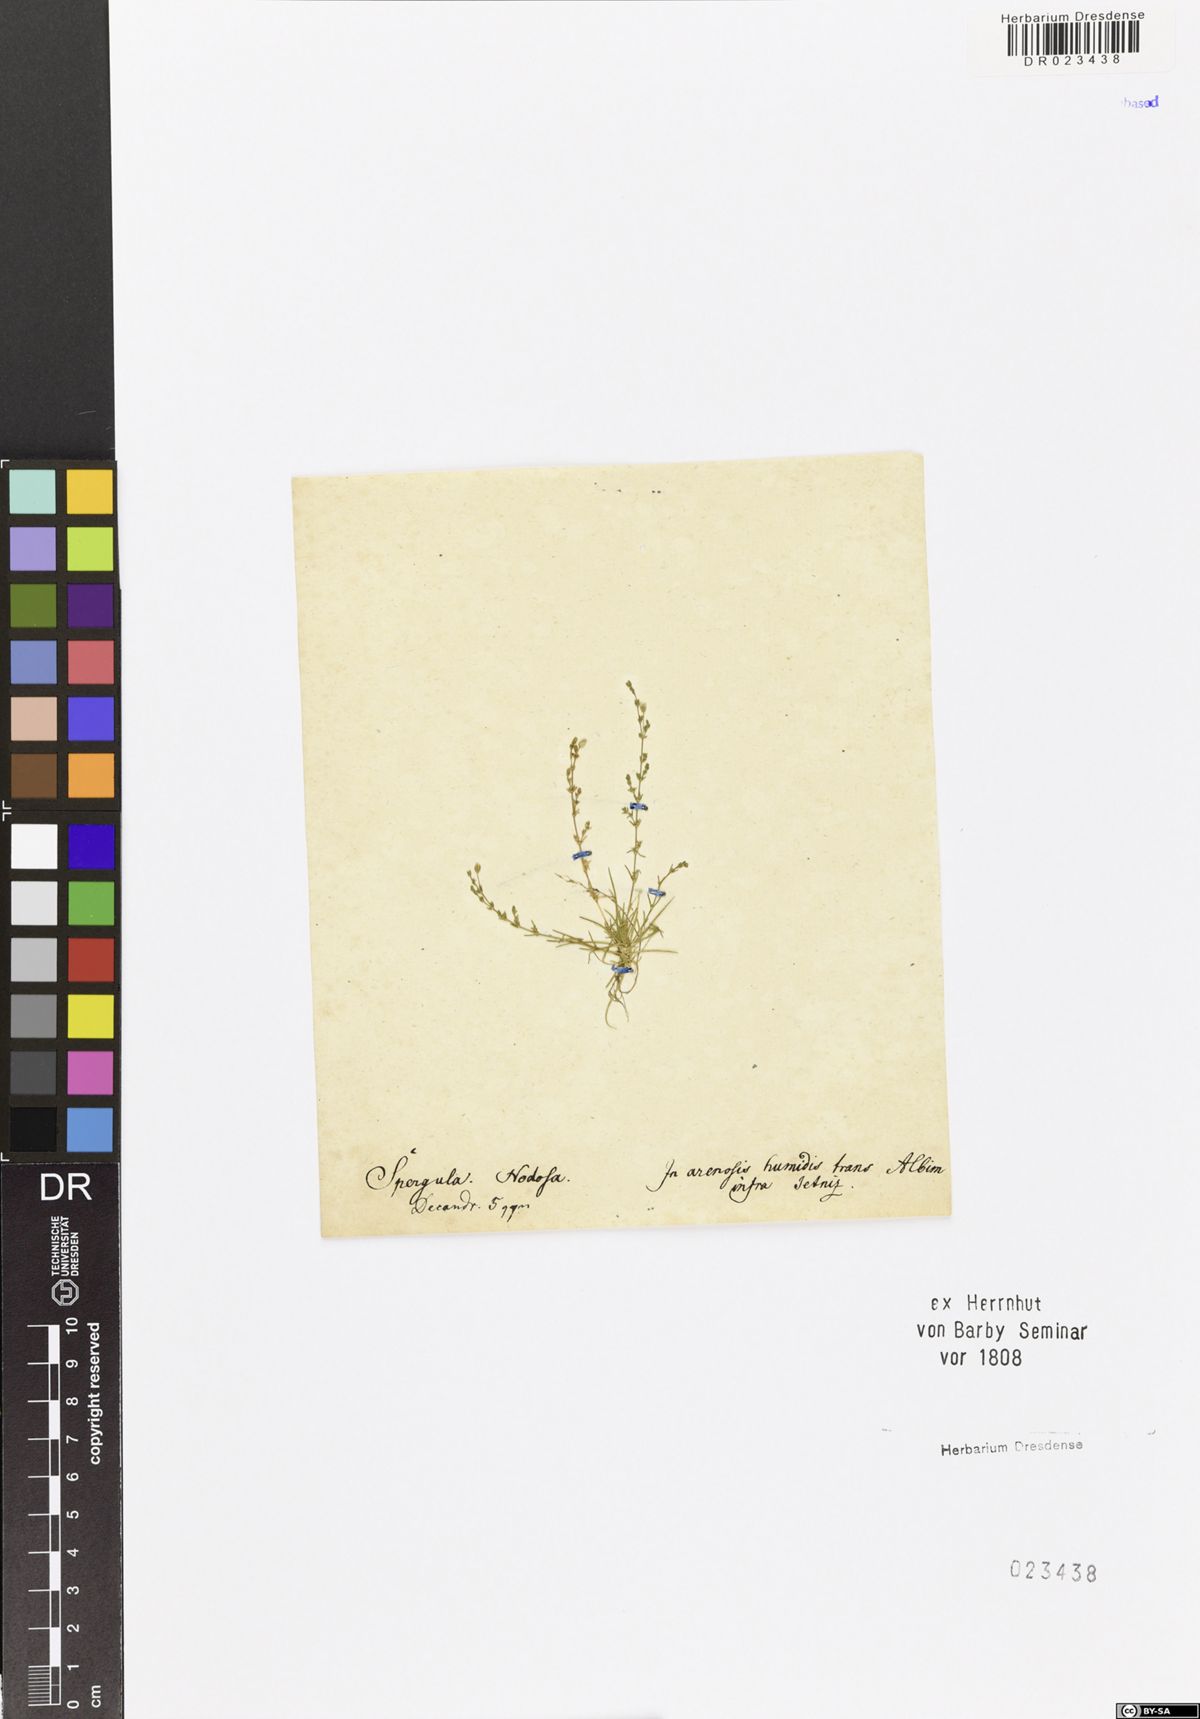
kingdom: Plantae
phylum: Tracheophyta
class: Magnoliopsida
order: Caryophyllales
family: Caryophyllaceae
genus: Sagina
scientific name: Sagina nodosa
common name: Knotted pearlwort
